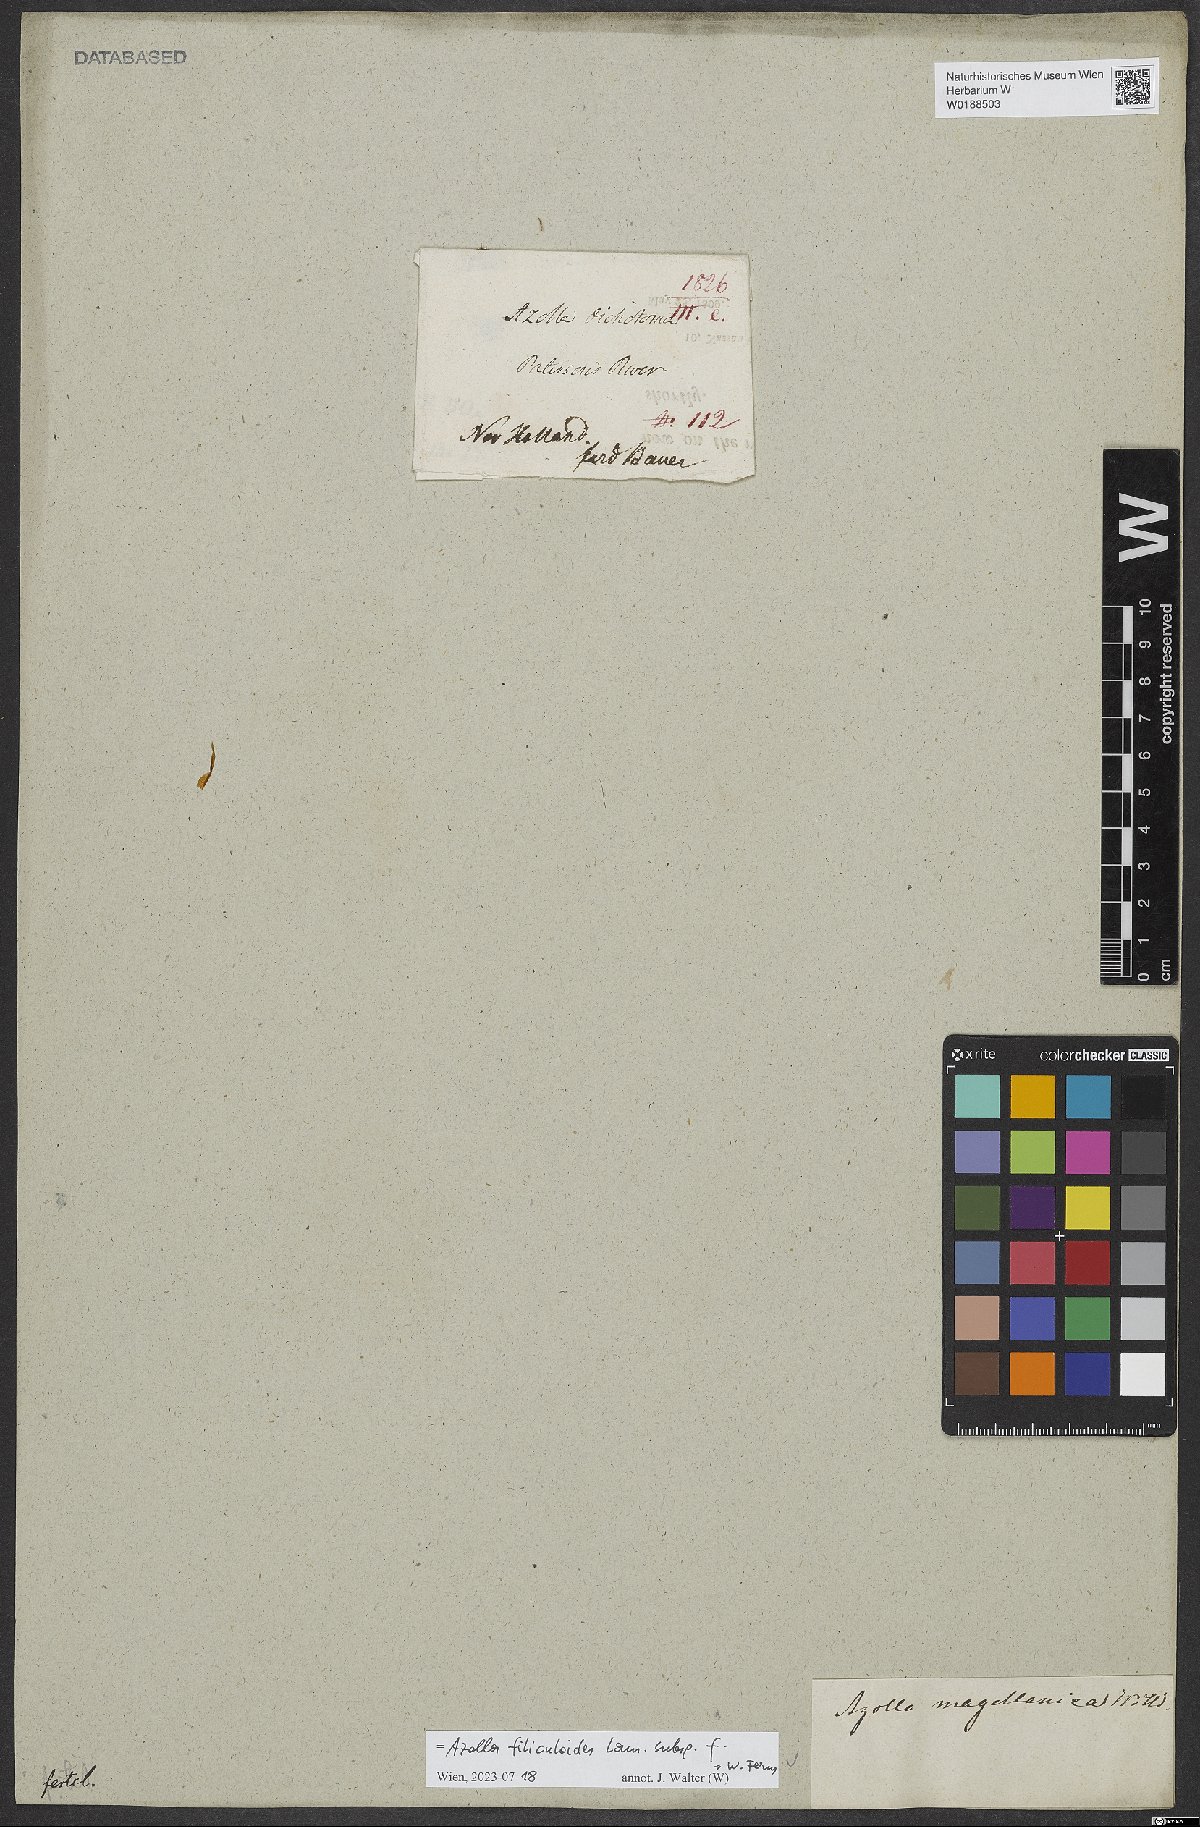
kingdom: Plantae
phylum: Tracheophyta
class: Polypodiopsida
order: Salviniales
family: Salviniaceae
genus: Azolla
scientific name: Azolla filiculoides
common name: Water fern
